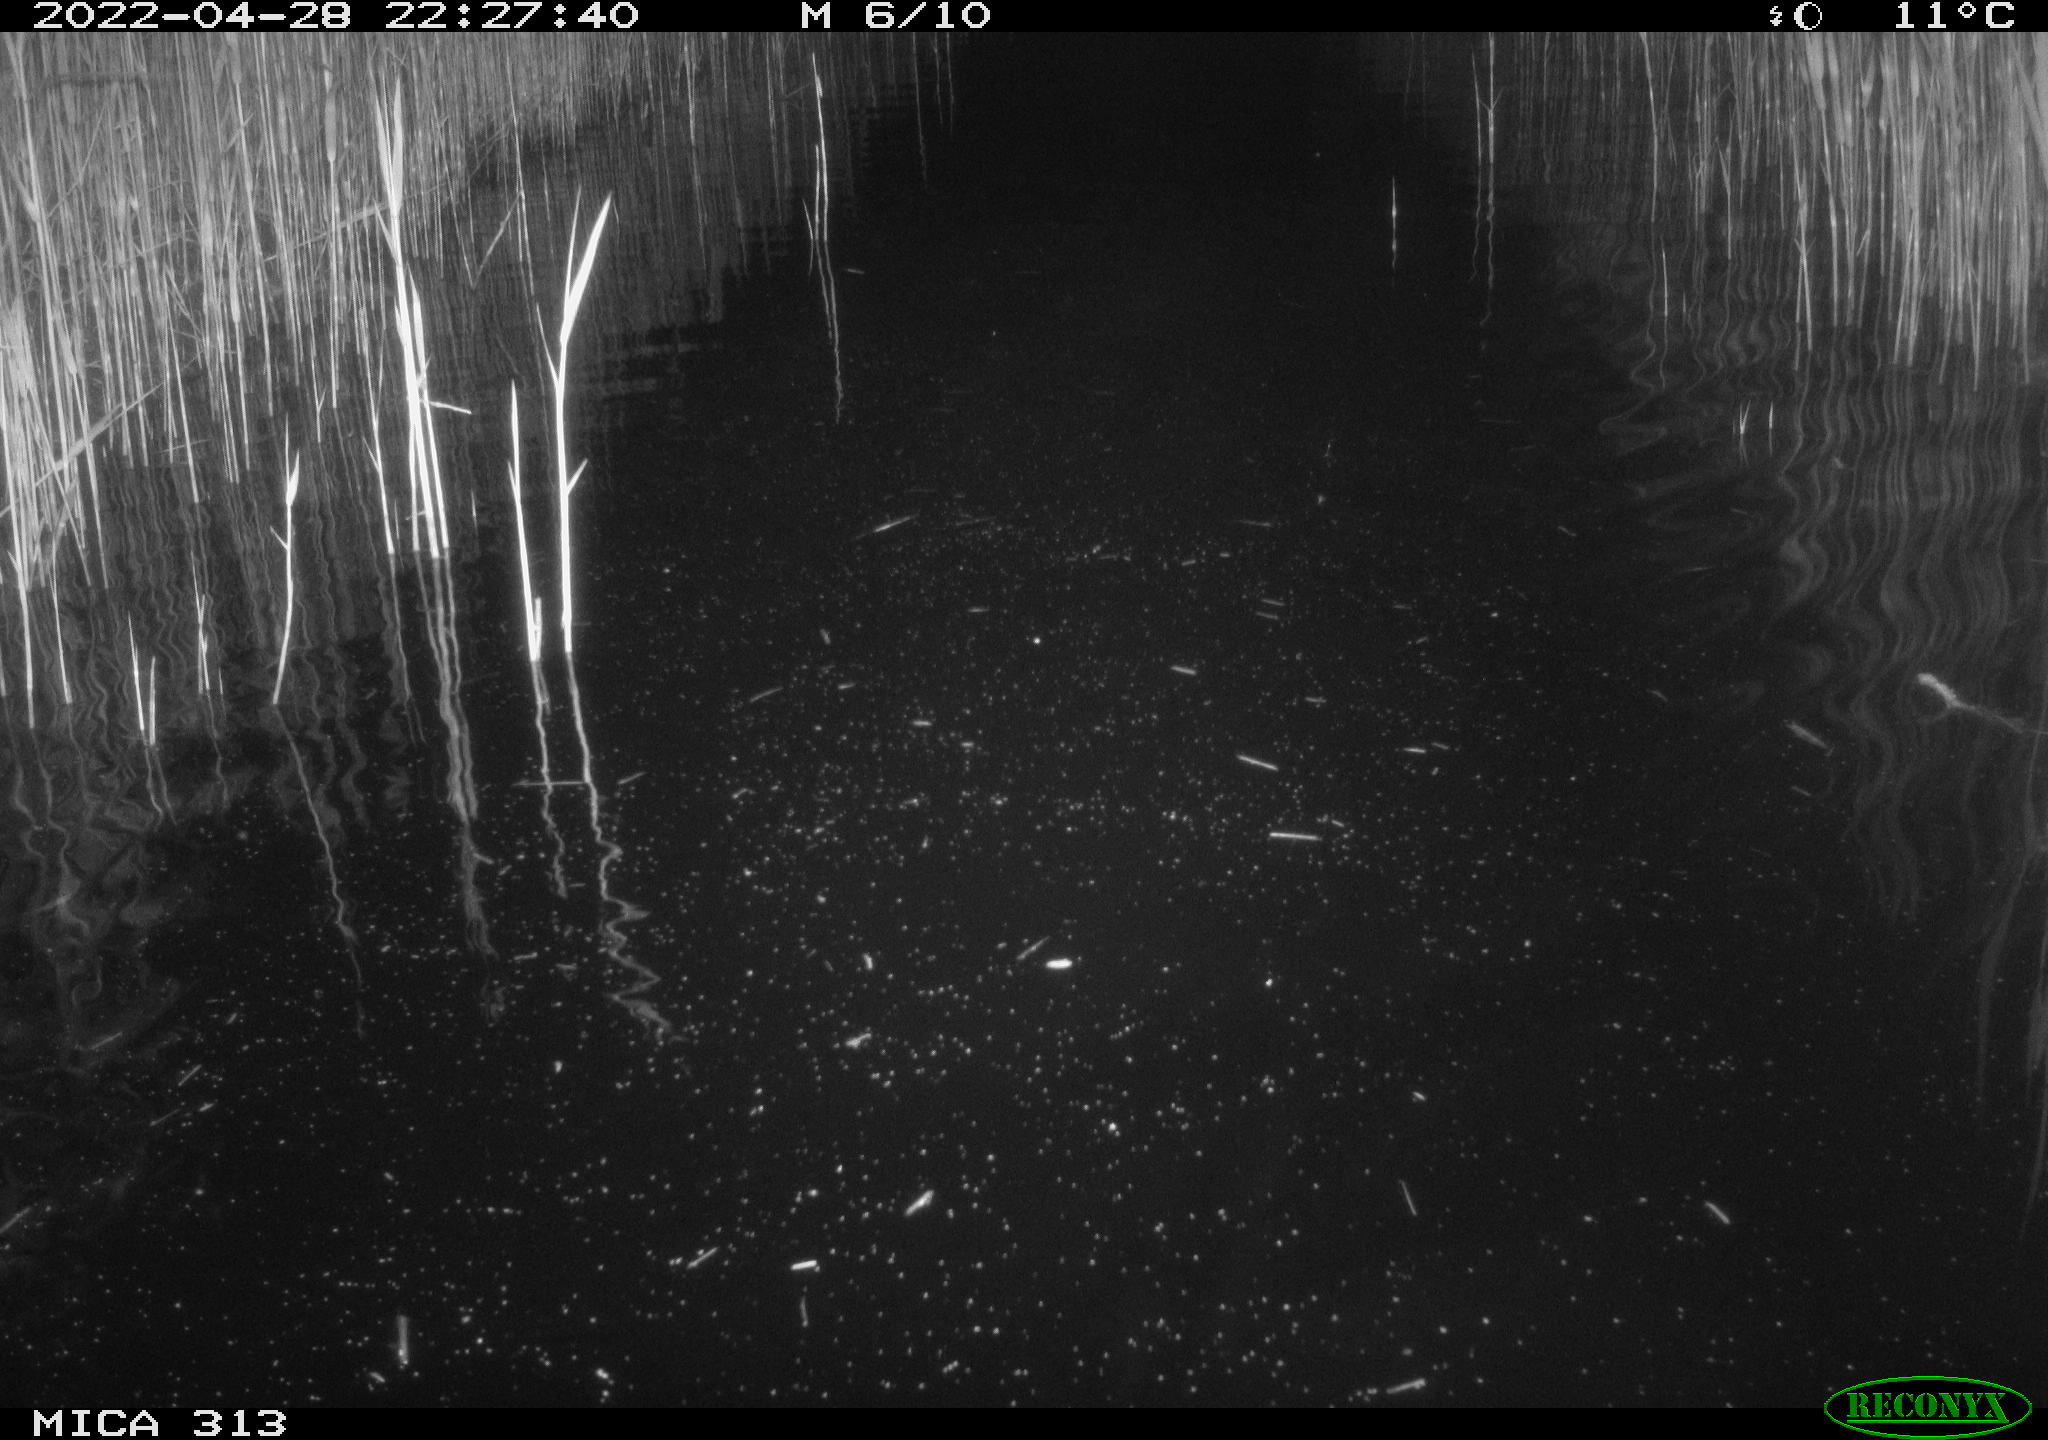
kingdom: Animalia
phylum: Chordata
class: Mammalia
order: Rodentia
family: Cricetidae
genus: Ondatra
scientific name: Ondatra zibethicus
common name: Muskrat
